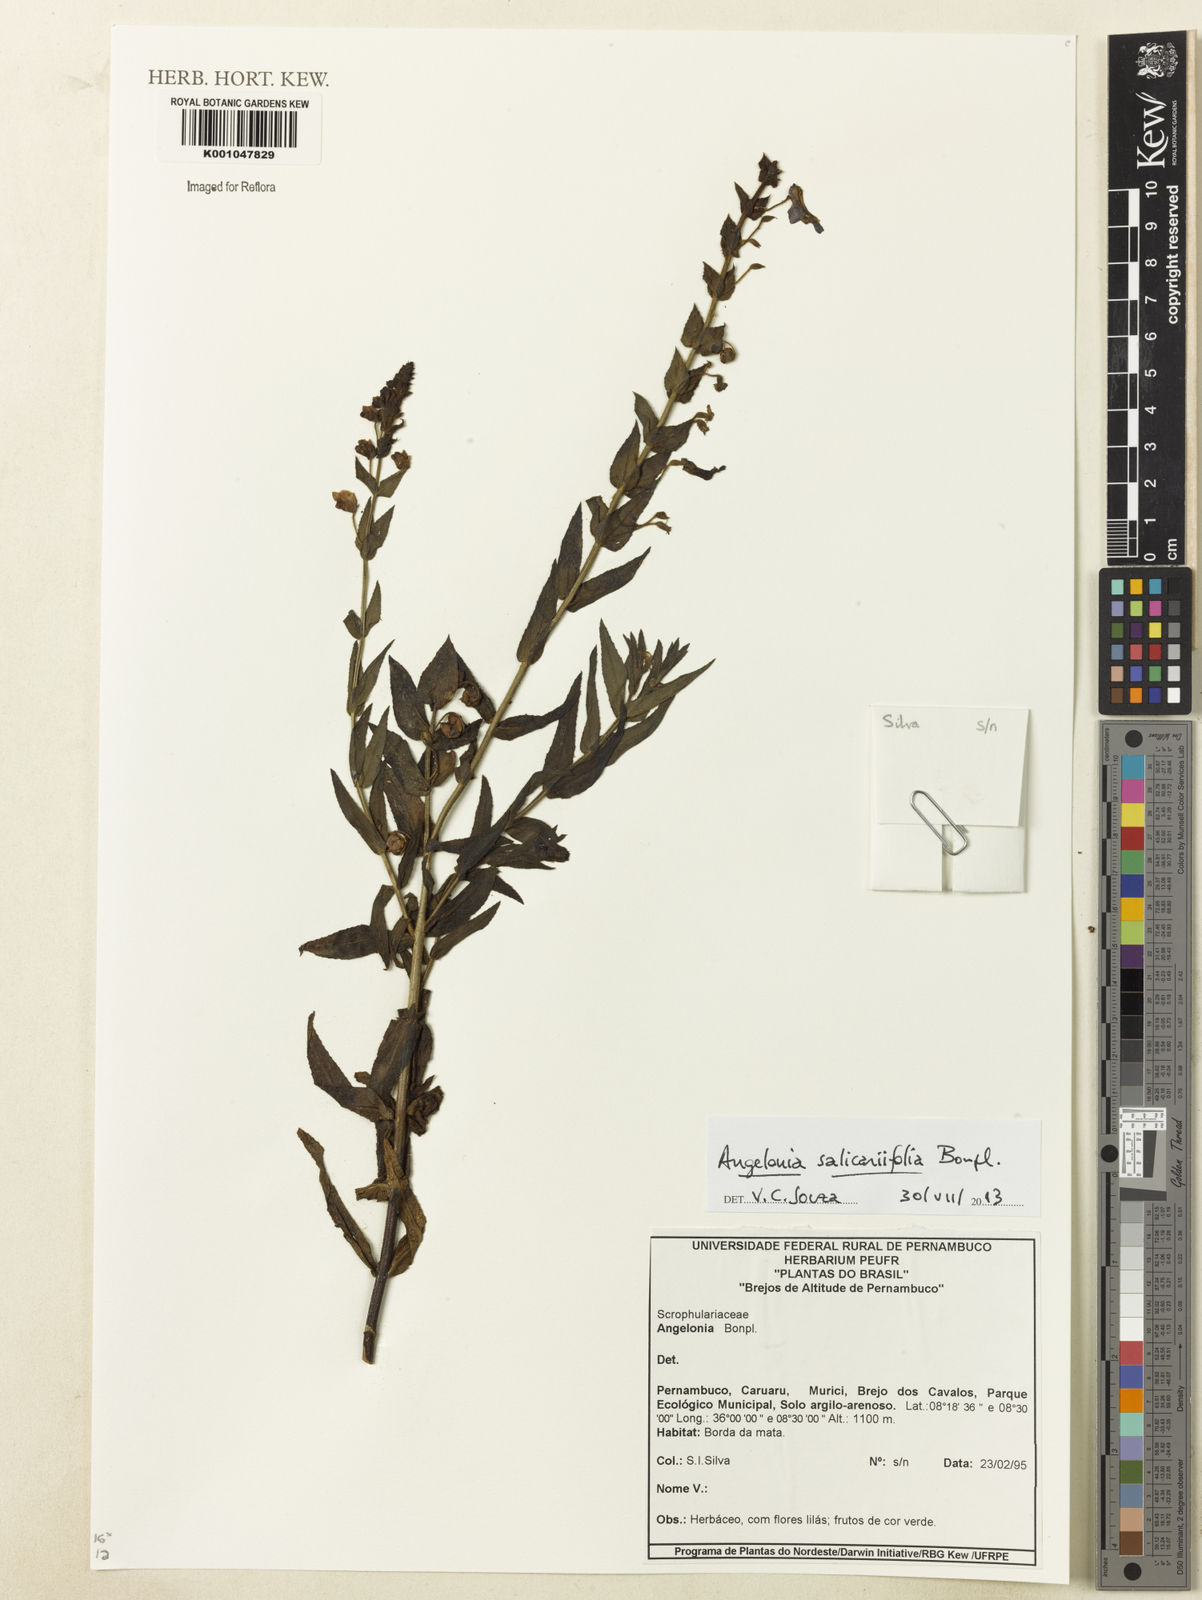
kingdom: Plantae
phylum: Tracheophyta
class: Magnoliopsida
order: Lamiales
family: Plantaginaceae
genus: Angelonia
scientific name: Angelonia salicariifolia
